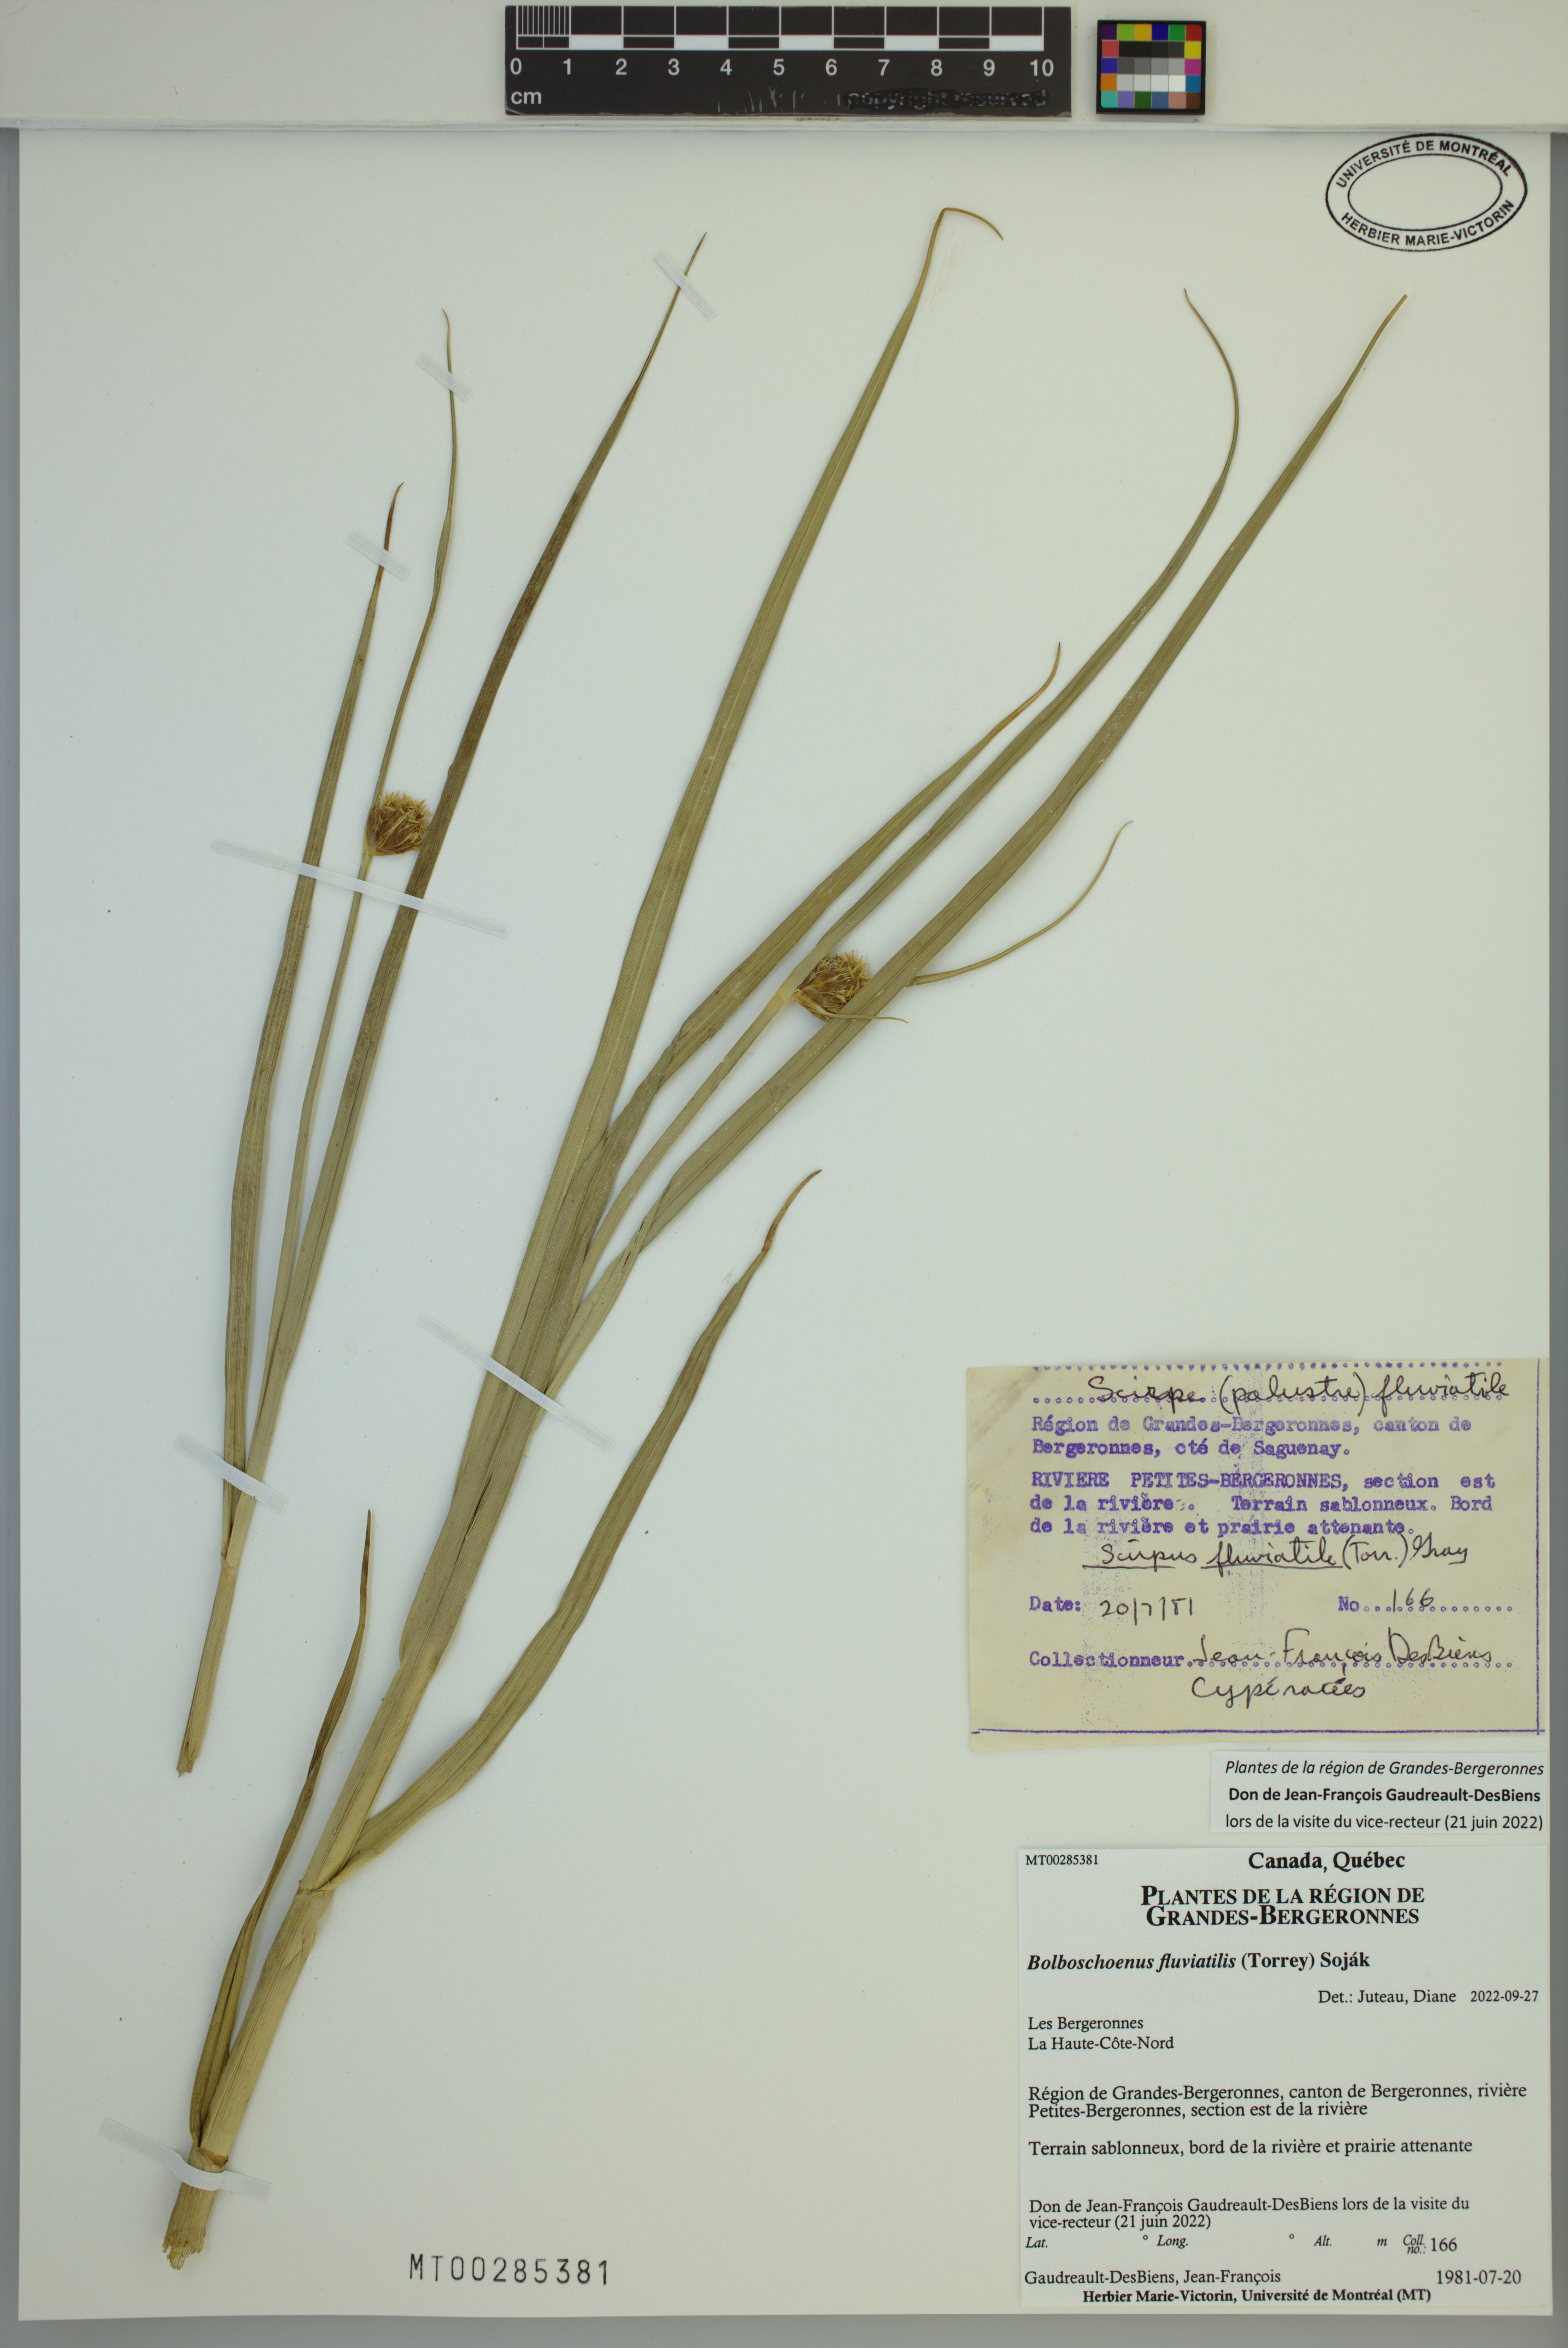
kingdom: Plantae
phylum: Tracheophyta
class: Liliopsida
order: Poales
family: Cyperaceae
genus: Bolboschoenus
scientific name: Bolboschoenus fluviatilis
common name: River bulrush
